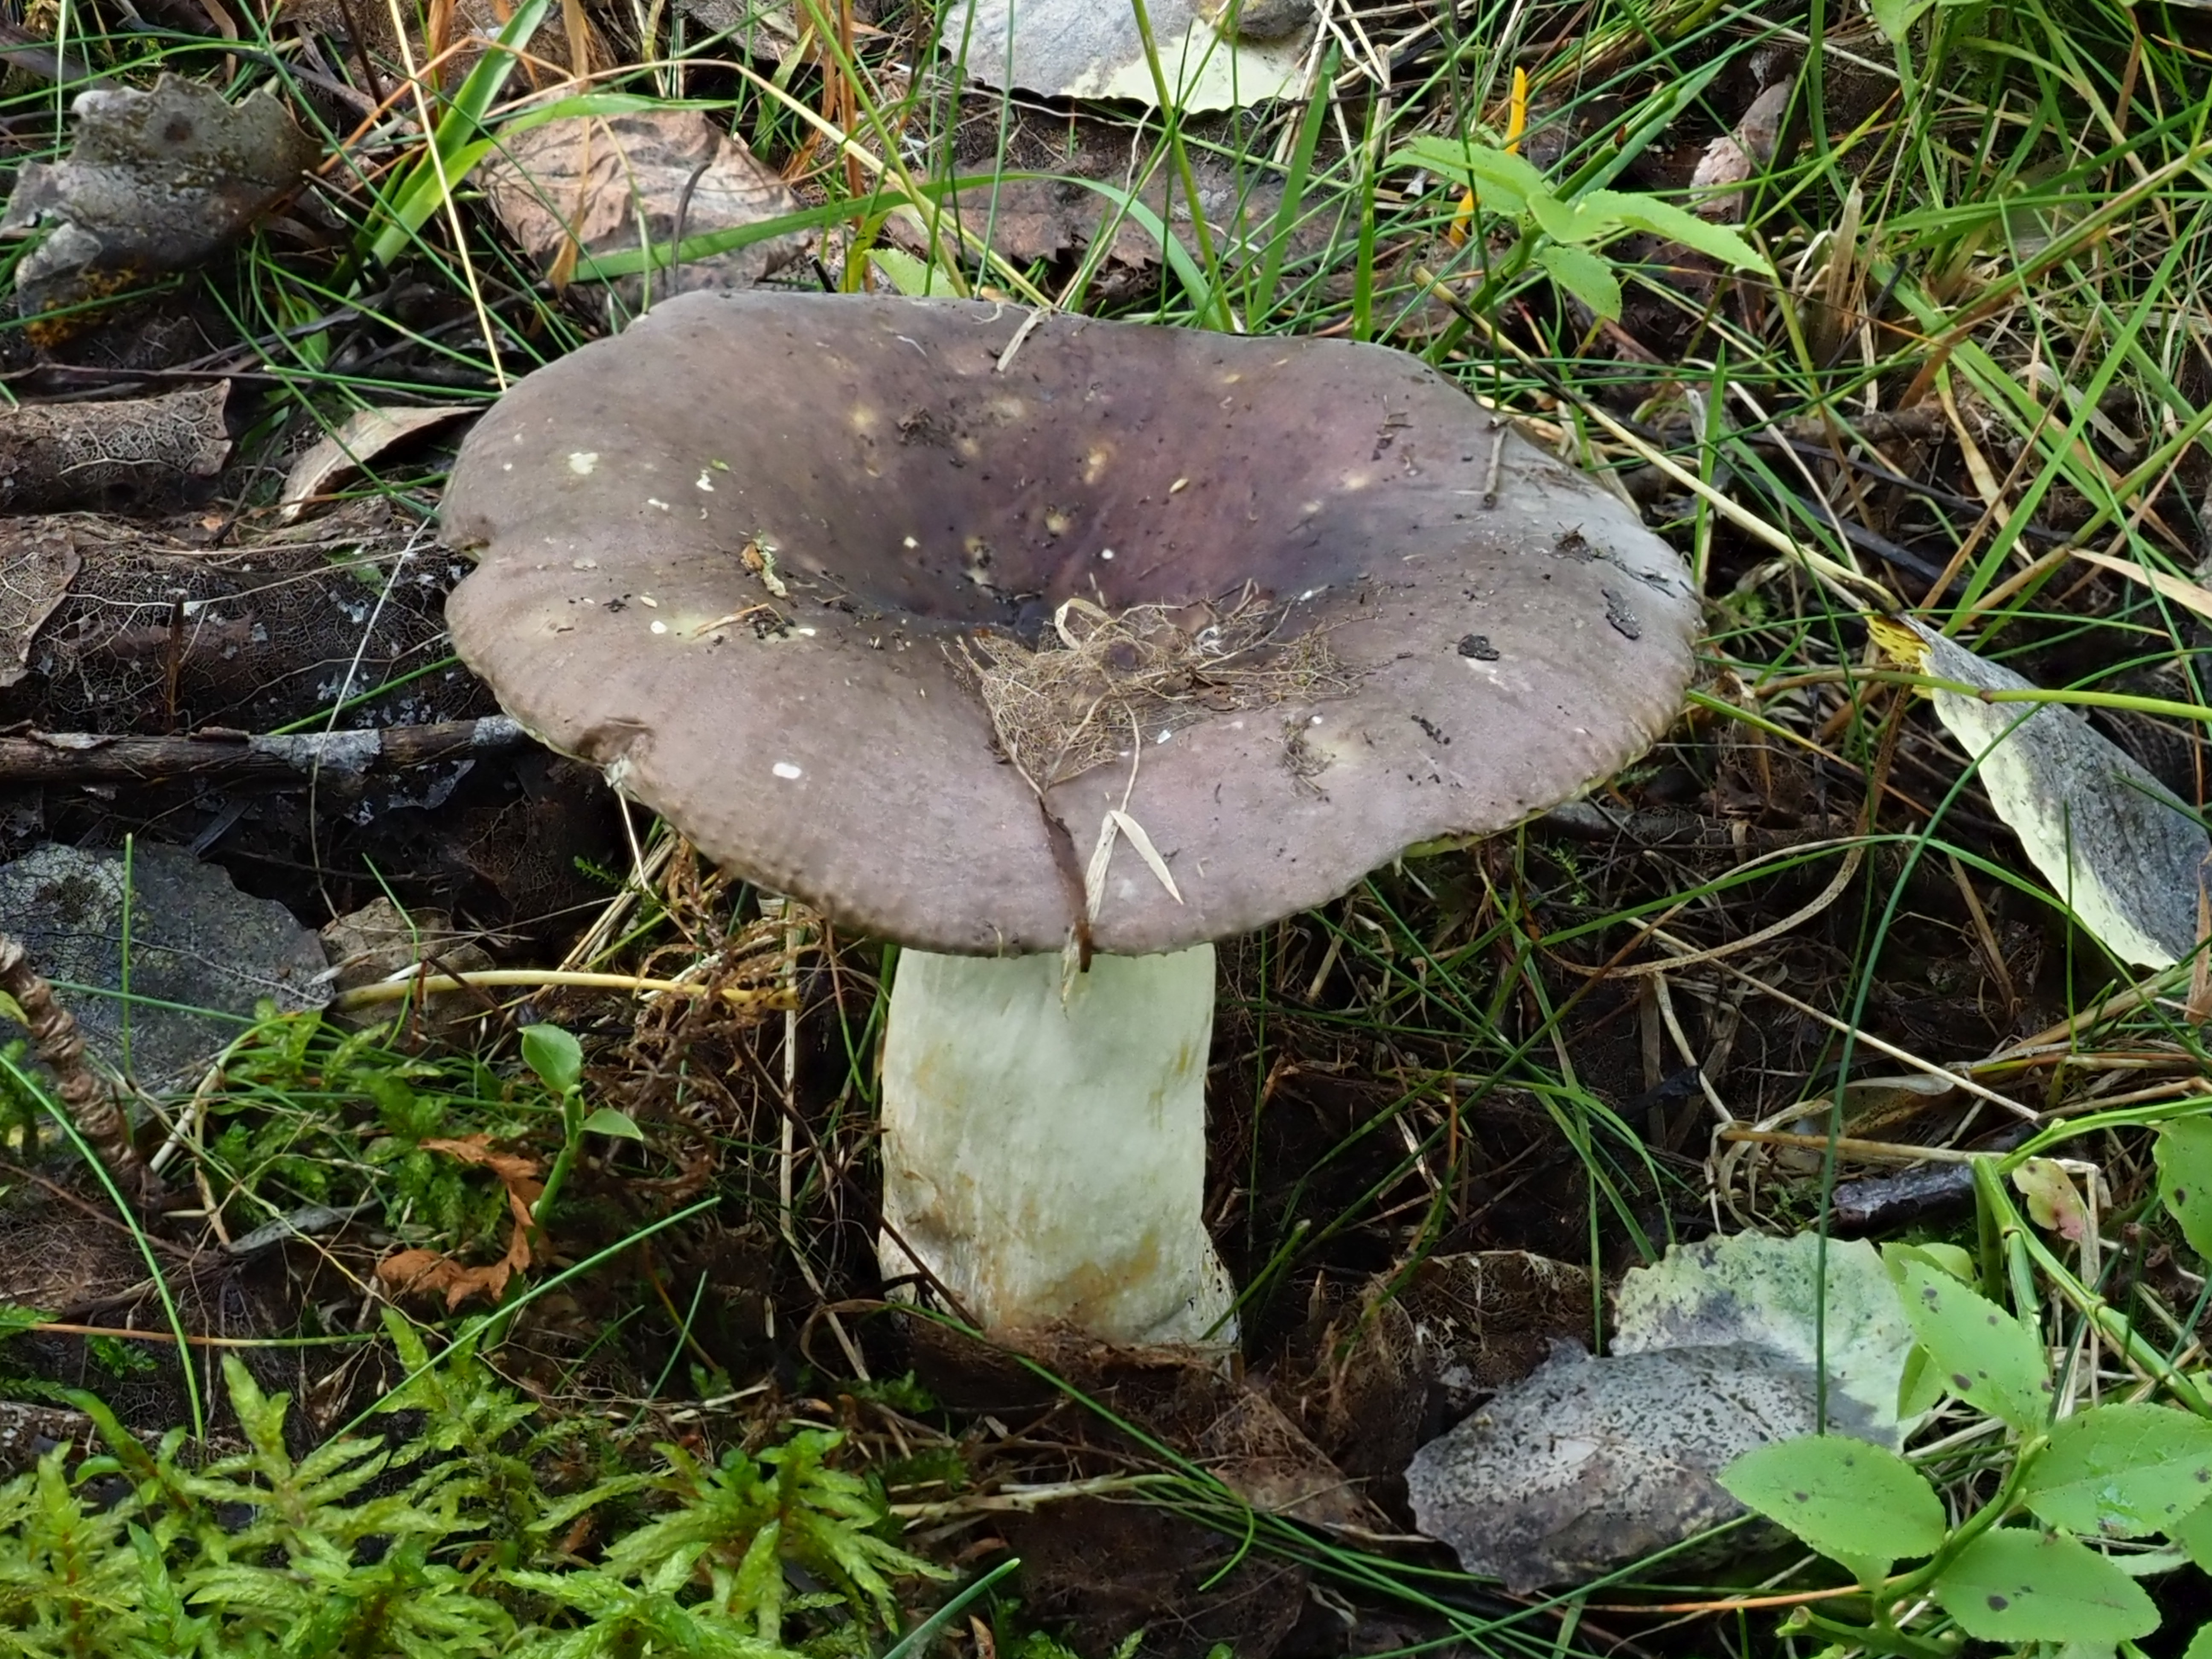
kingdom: Fungi
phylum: Basidiomycota
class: Agaricomycetes
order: Russulales
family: Russulaceae
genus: Russula
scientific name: Russula favrei
